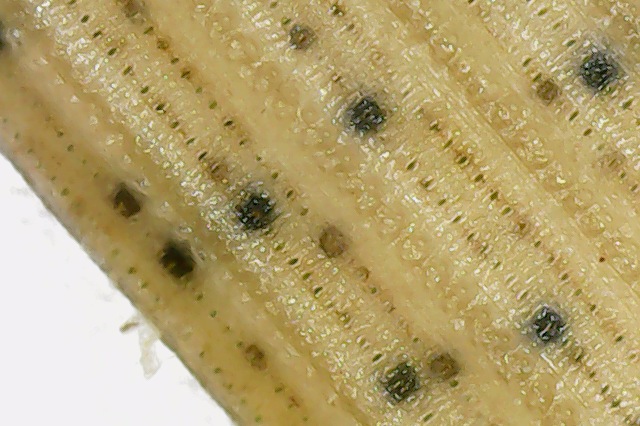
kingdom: Fungi
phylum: Ascomycota
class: Dothideomycetes
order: Pleosporales
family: Phaeosphaeriaceae
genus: Phaeosphaeria
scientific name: Phaeosphaeria berlesei
